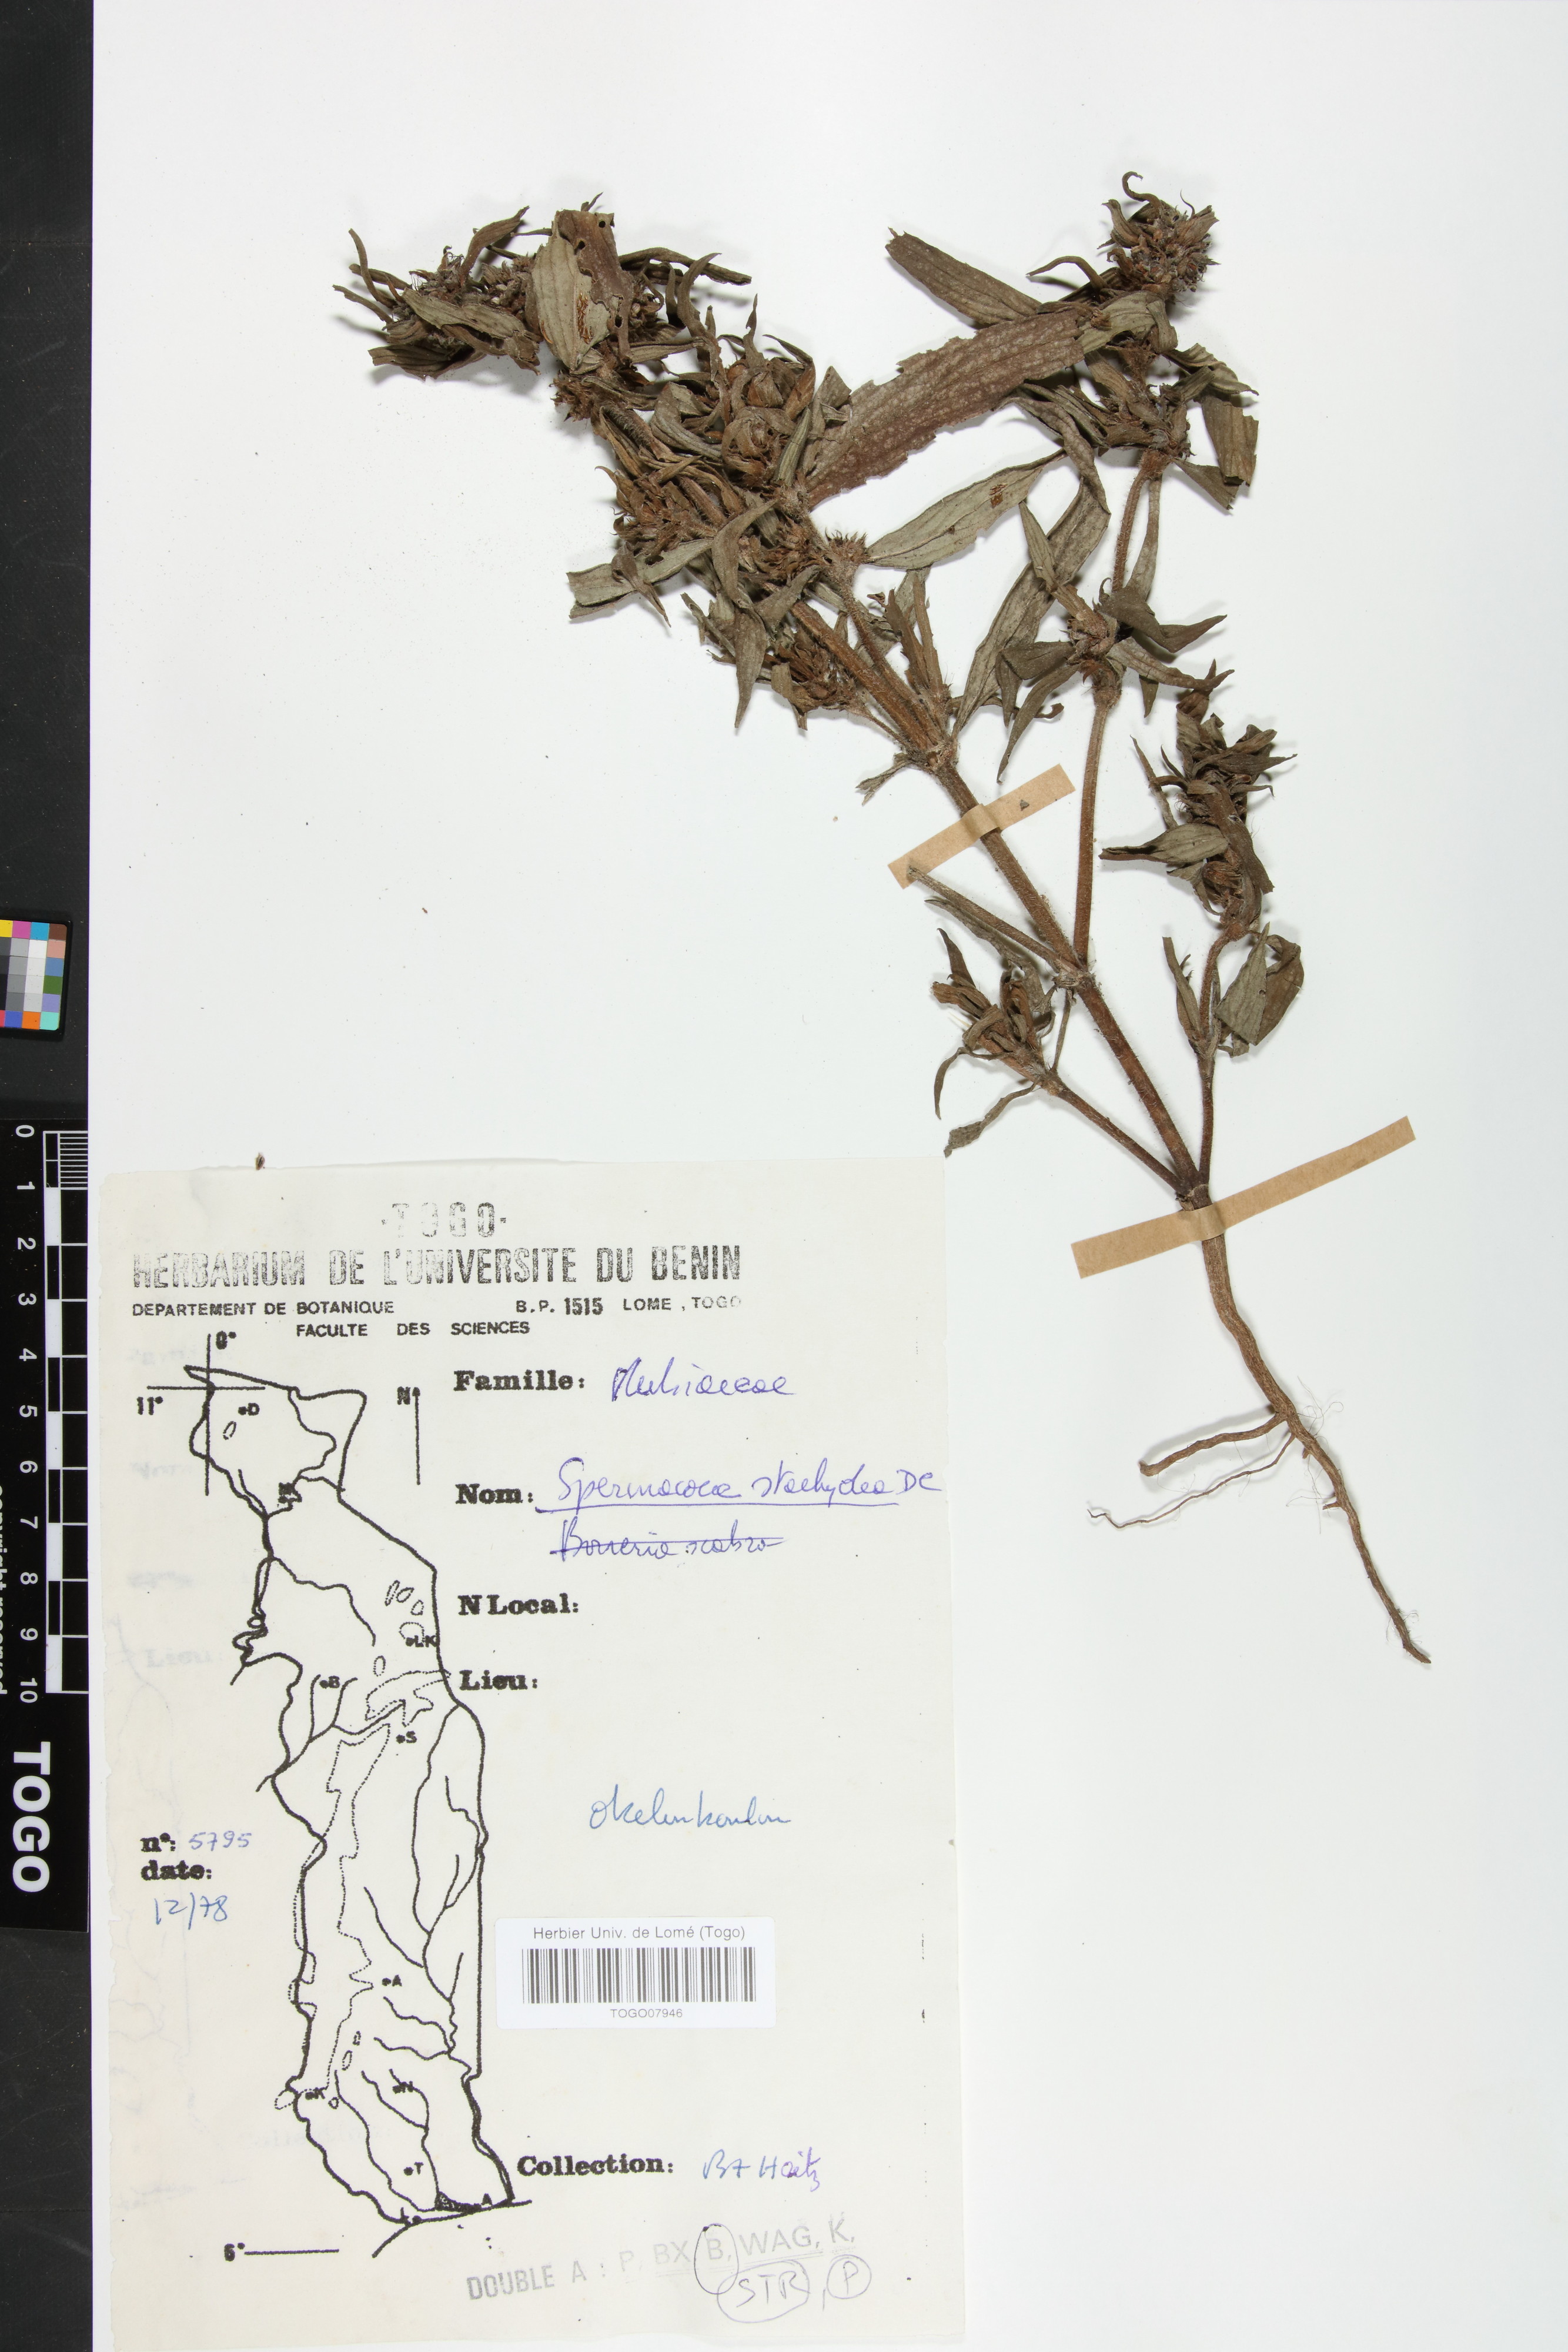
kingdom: Plantae
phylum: Tracheophyta
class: Magnoliopsida
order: Gentianales
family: Rubiaceae
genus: Spermacoce
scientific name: Spermacoce stachydea
